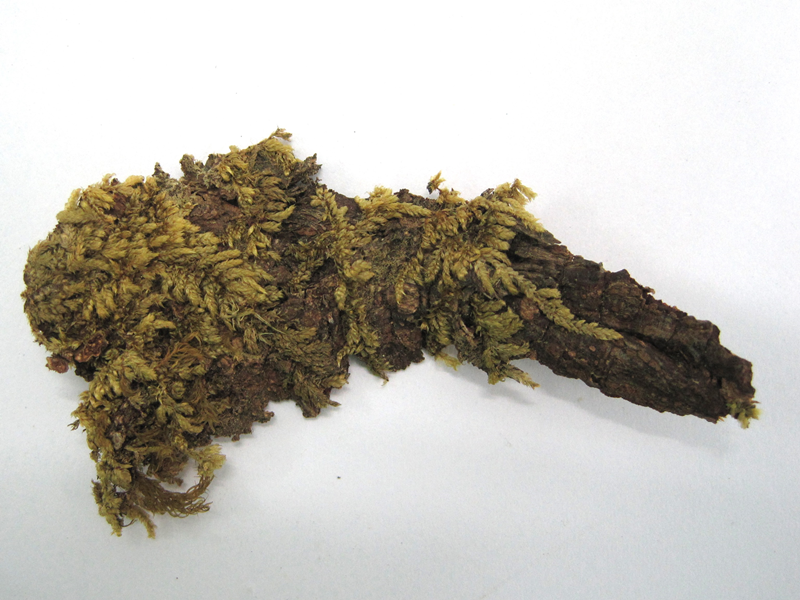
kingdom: Plantae
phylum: Bryophyta
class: Bryopsida
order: Hypnales
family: Sematophyllaceae
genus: Papillidiopsis
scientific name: Papillidiopsis ramulina
